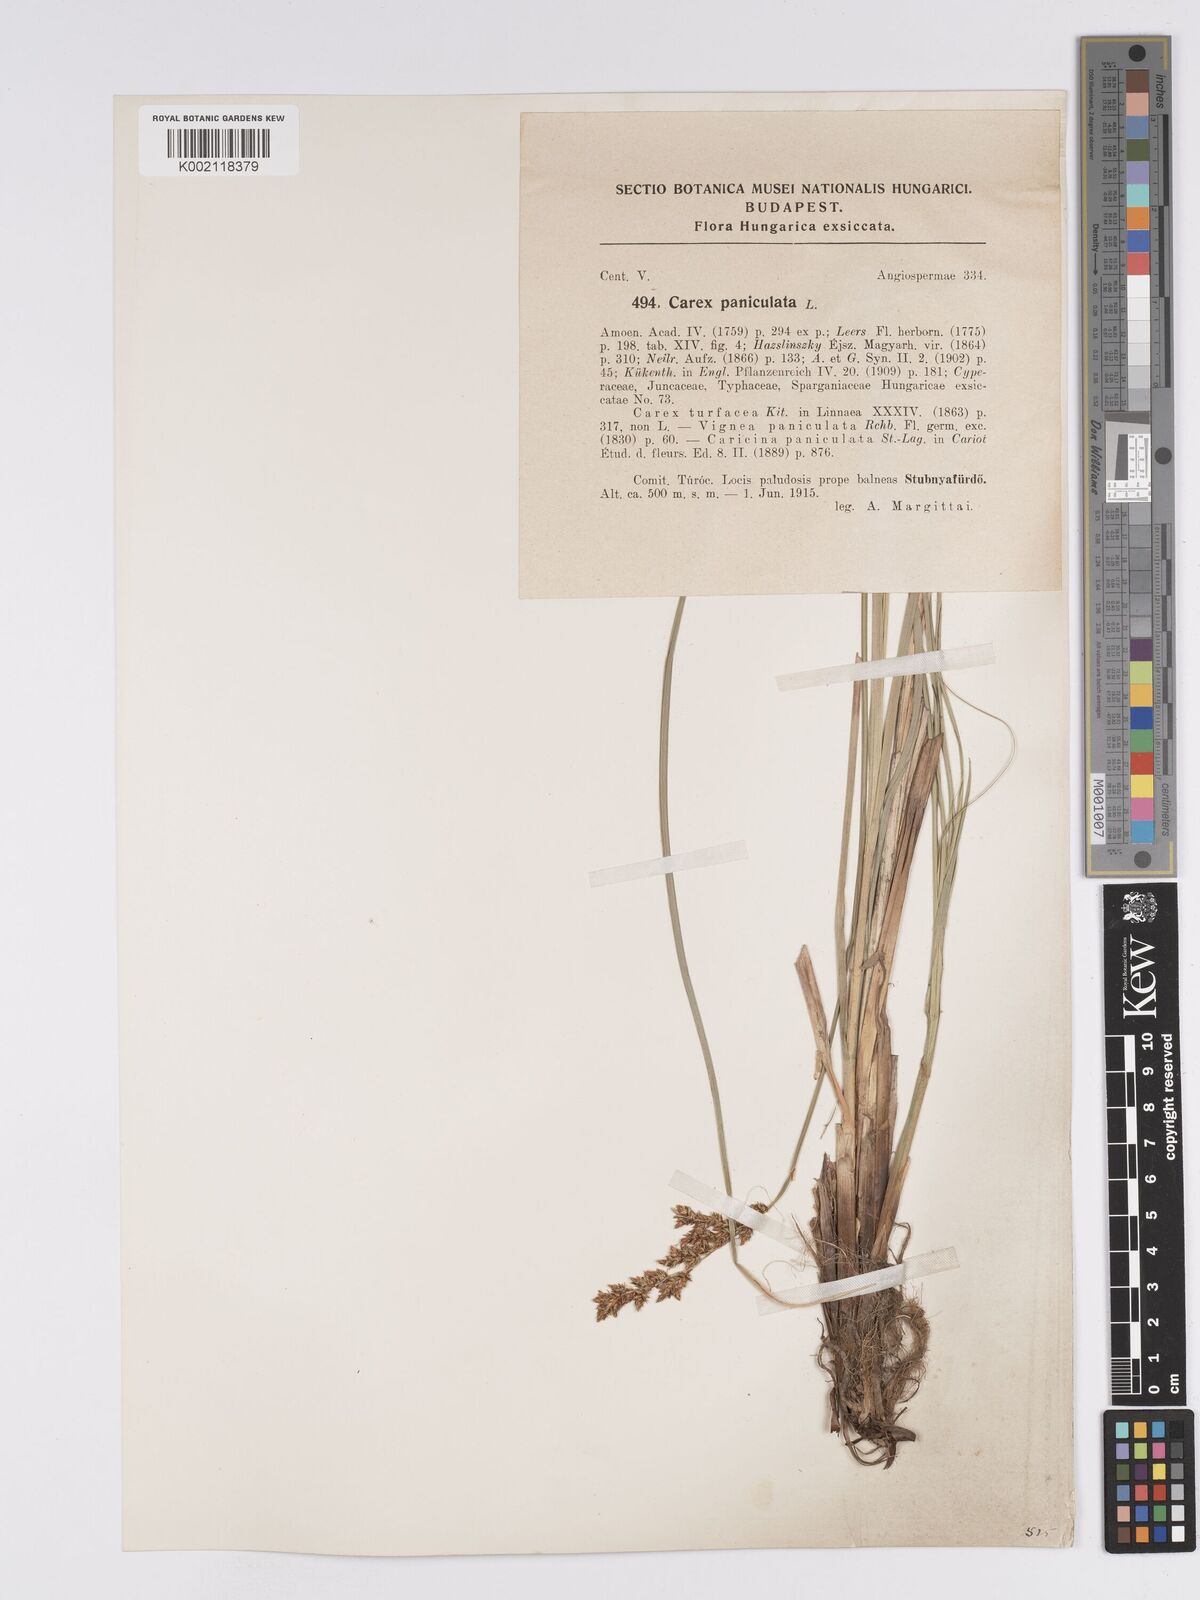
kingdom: Plantae
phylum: Tracheophyta
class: Liliopsida
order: Poales
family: Cyperaceae
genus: Carex
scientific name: Carex paniculata
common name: Greater tussock-sedge
